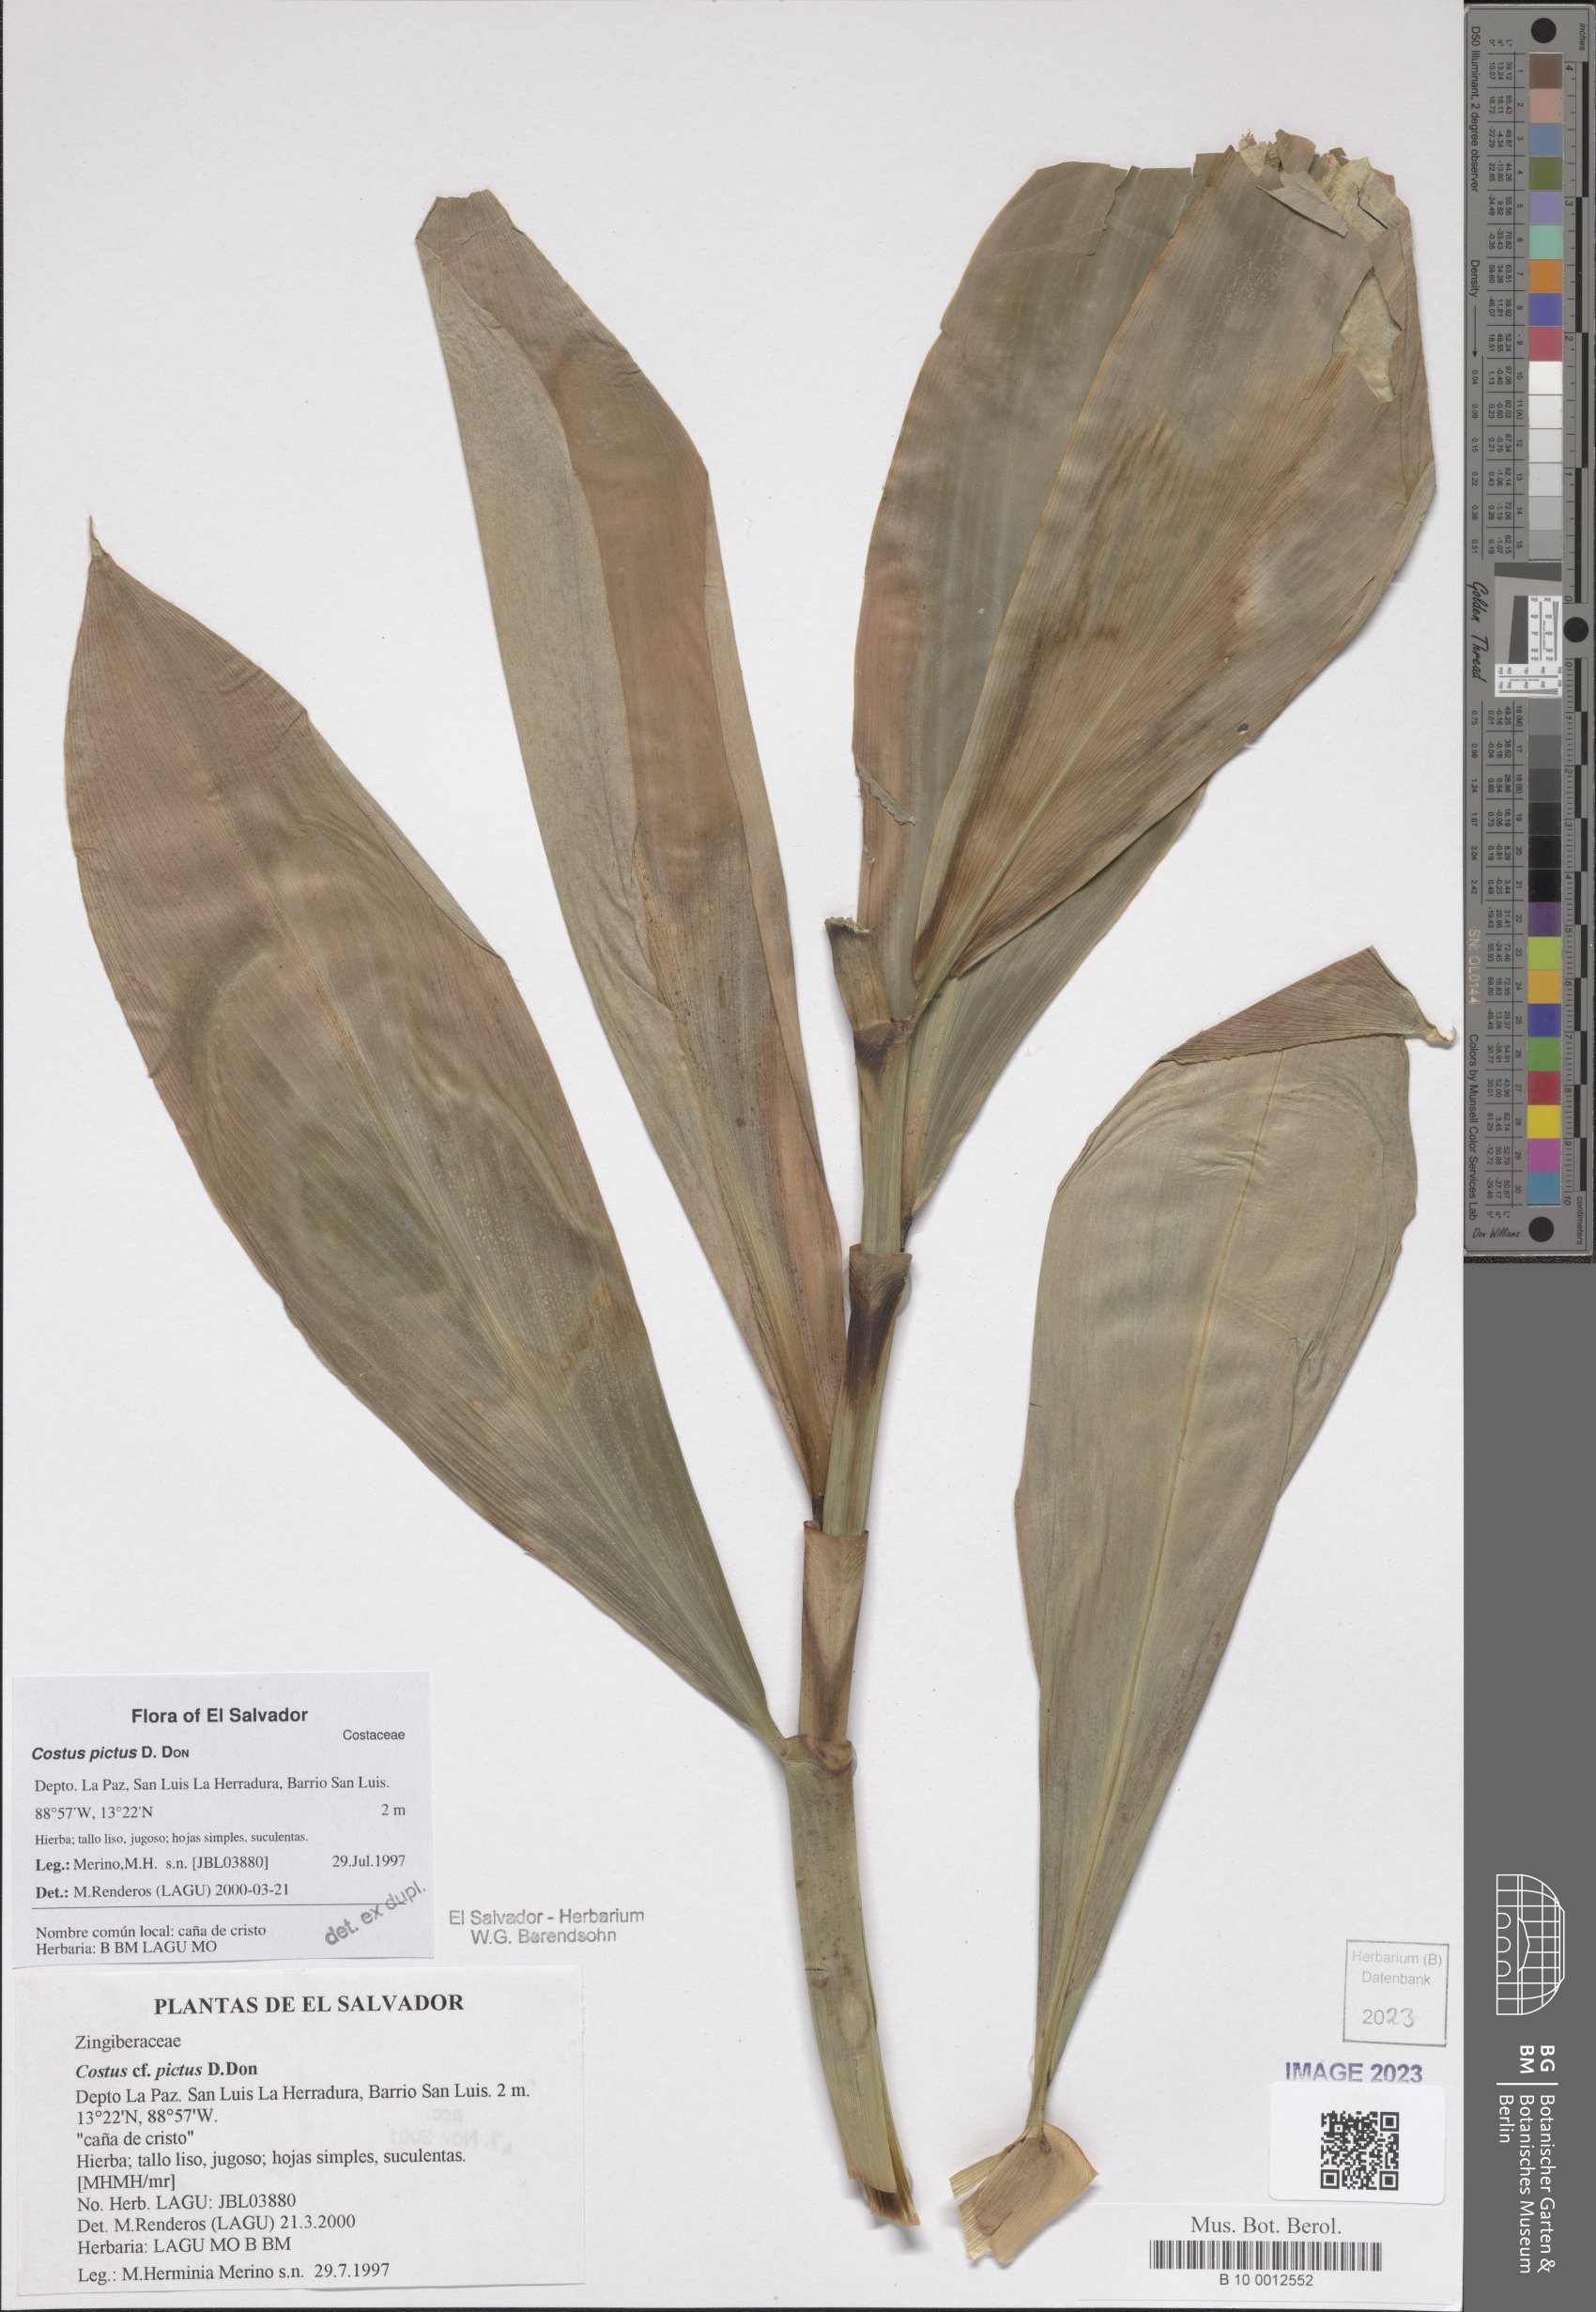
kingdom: Plantae
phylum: Tracheophyta
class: Liliopsida
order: Zingiberales
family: Costaceae
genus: Costus
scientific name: Costus pictus
